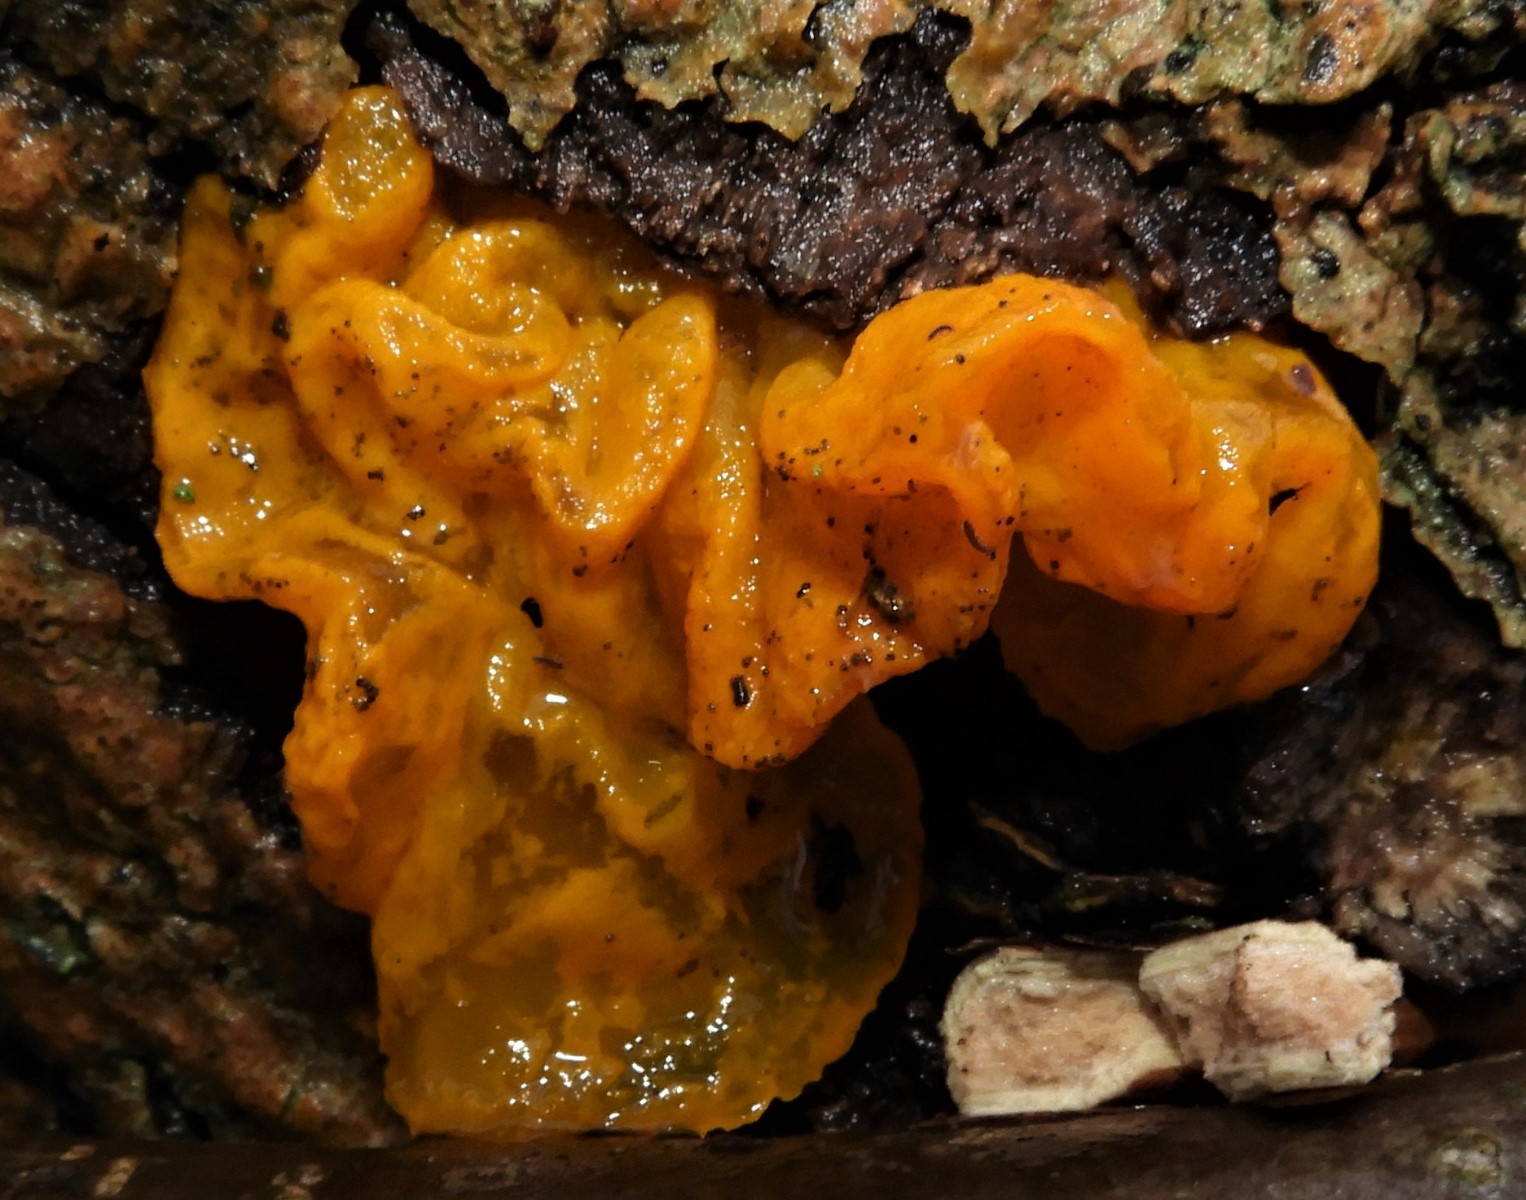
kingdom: Fungi
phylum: Basidiomycota
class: Tremellomycetes
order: Tremellales
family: Tremellaceae
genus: Tremella
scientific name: Tremella mesenterica
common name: gul bævresvamp
